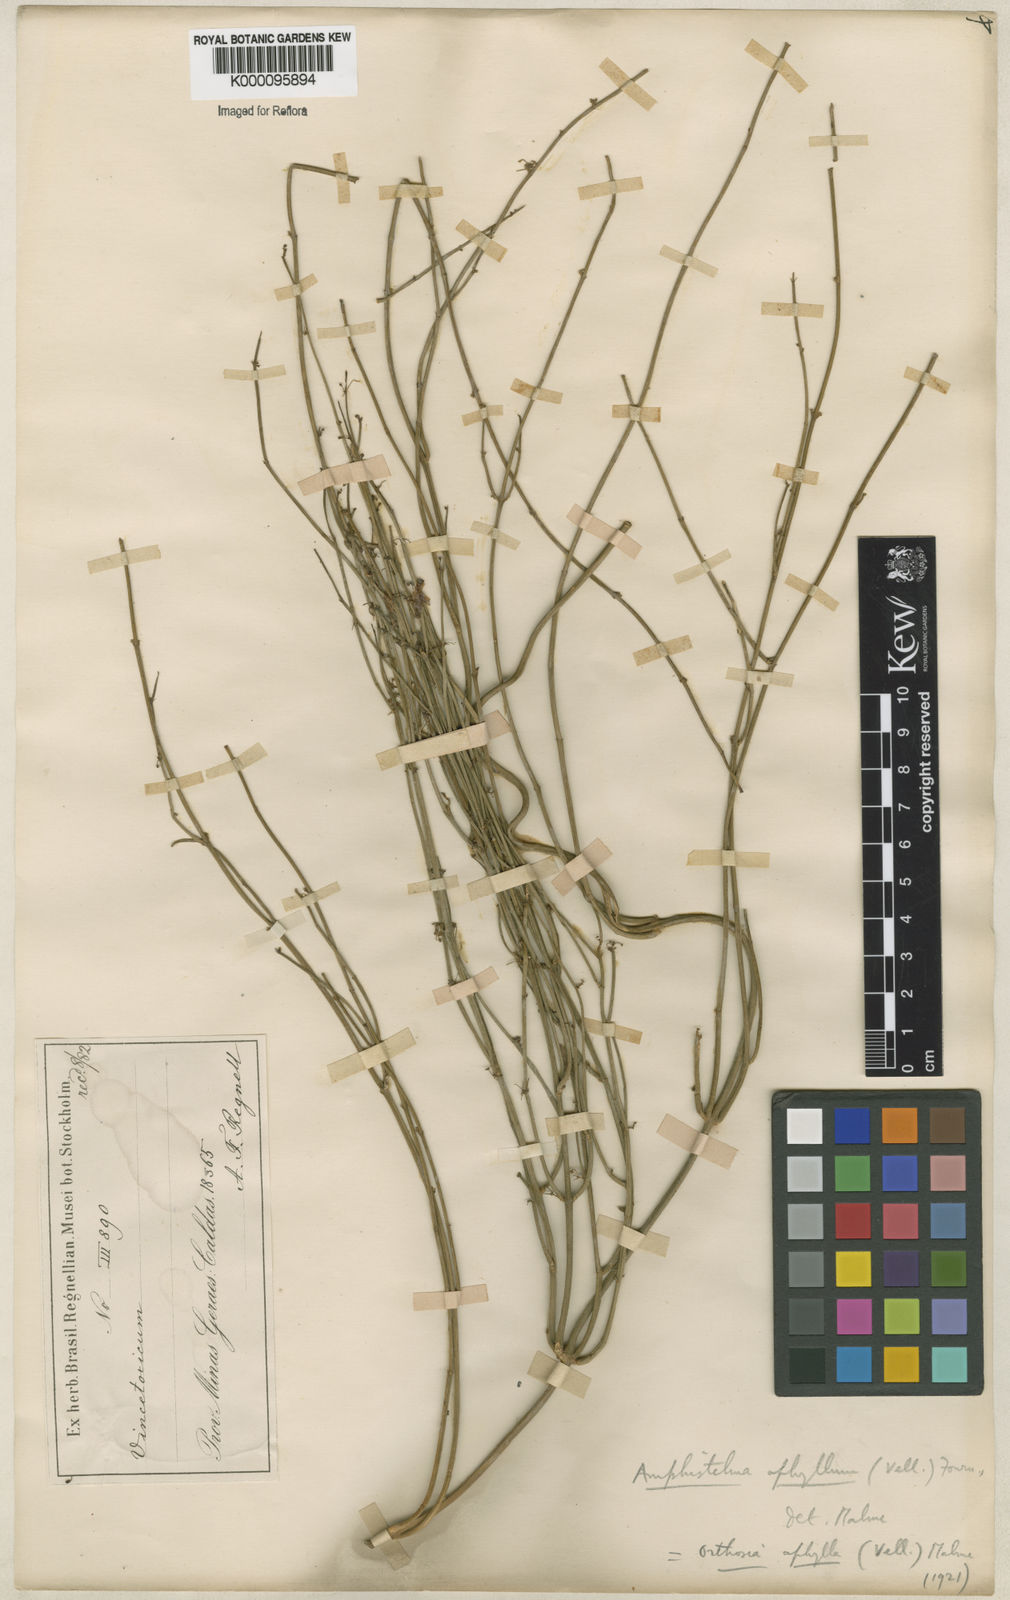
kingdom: Plantae
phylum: Tracheophyta
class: Magnoliopsida
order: Gentianales
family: Apocynaceae
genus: Orthosia
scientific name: Orthosia scoparia
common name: Leafless swallow-wort
